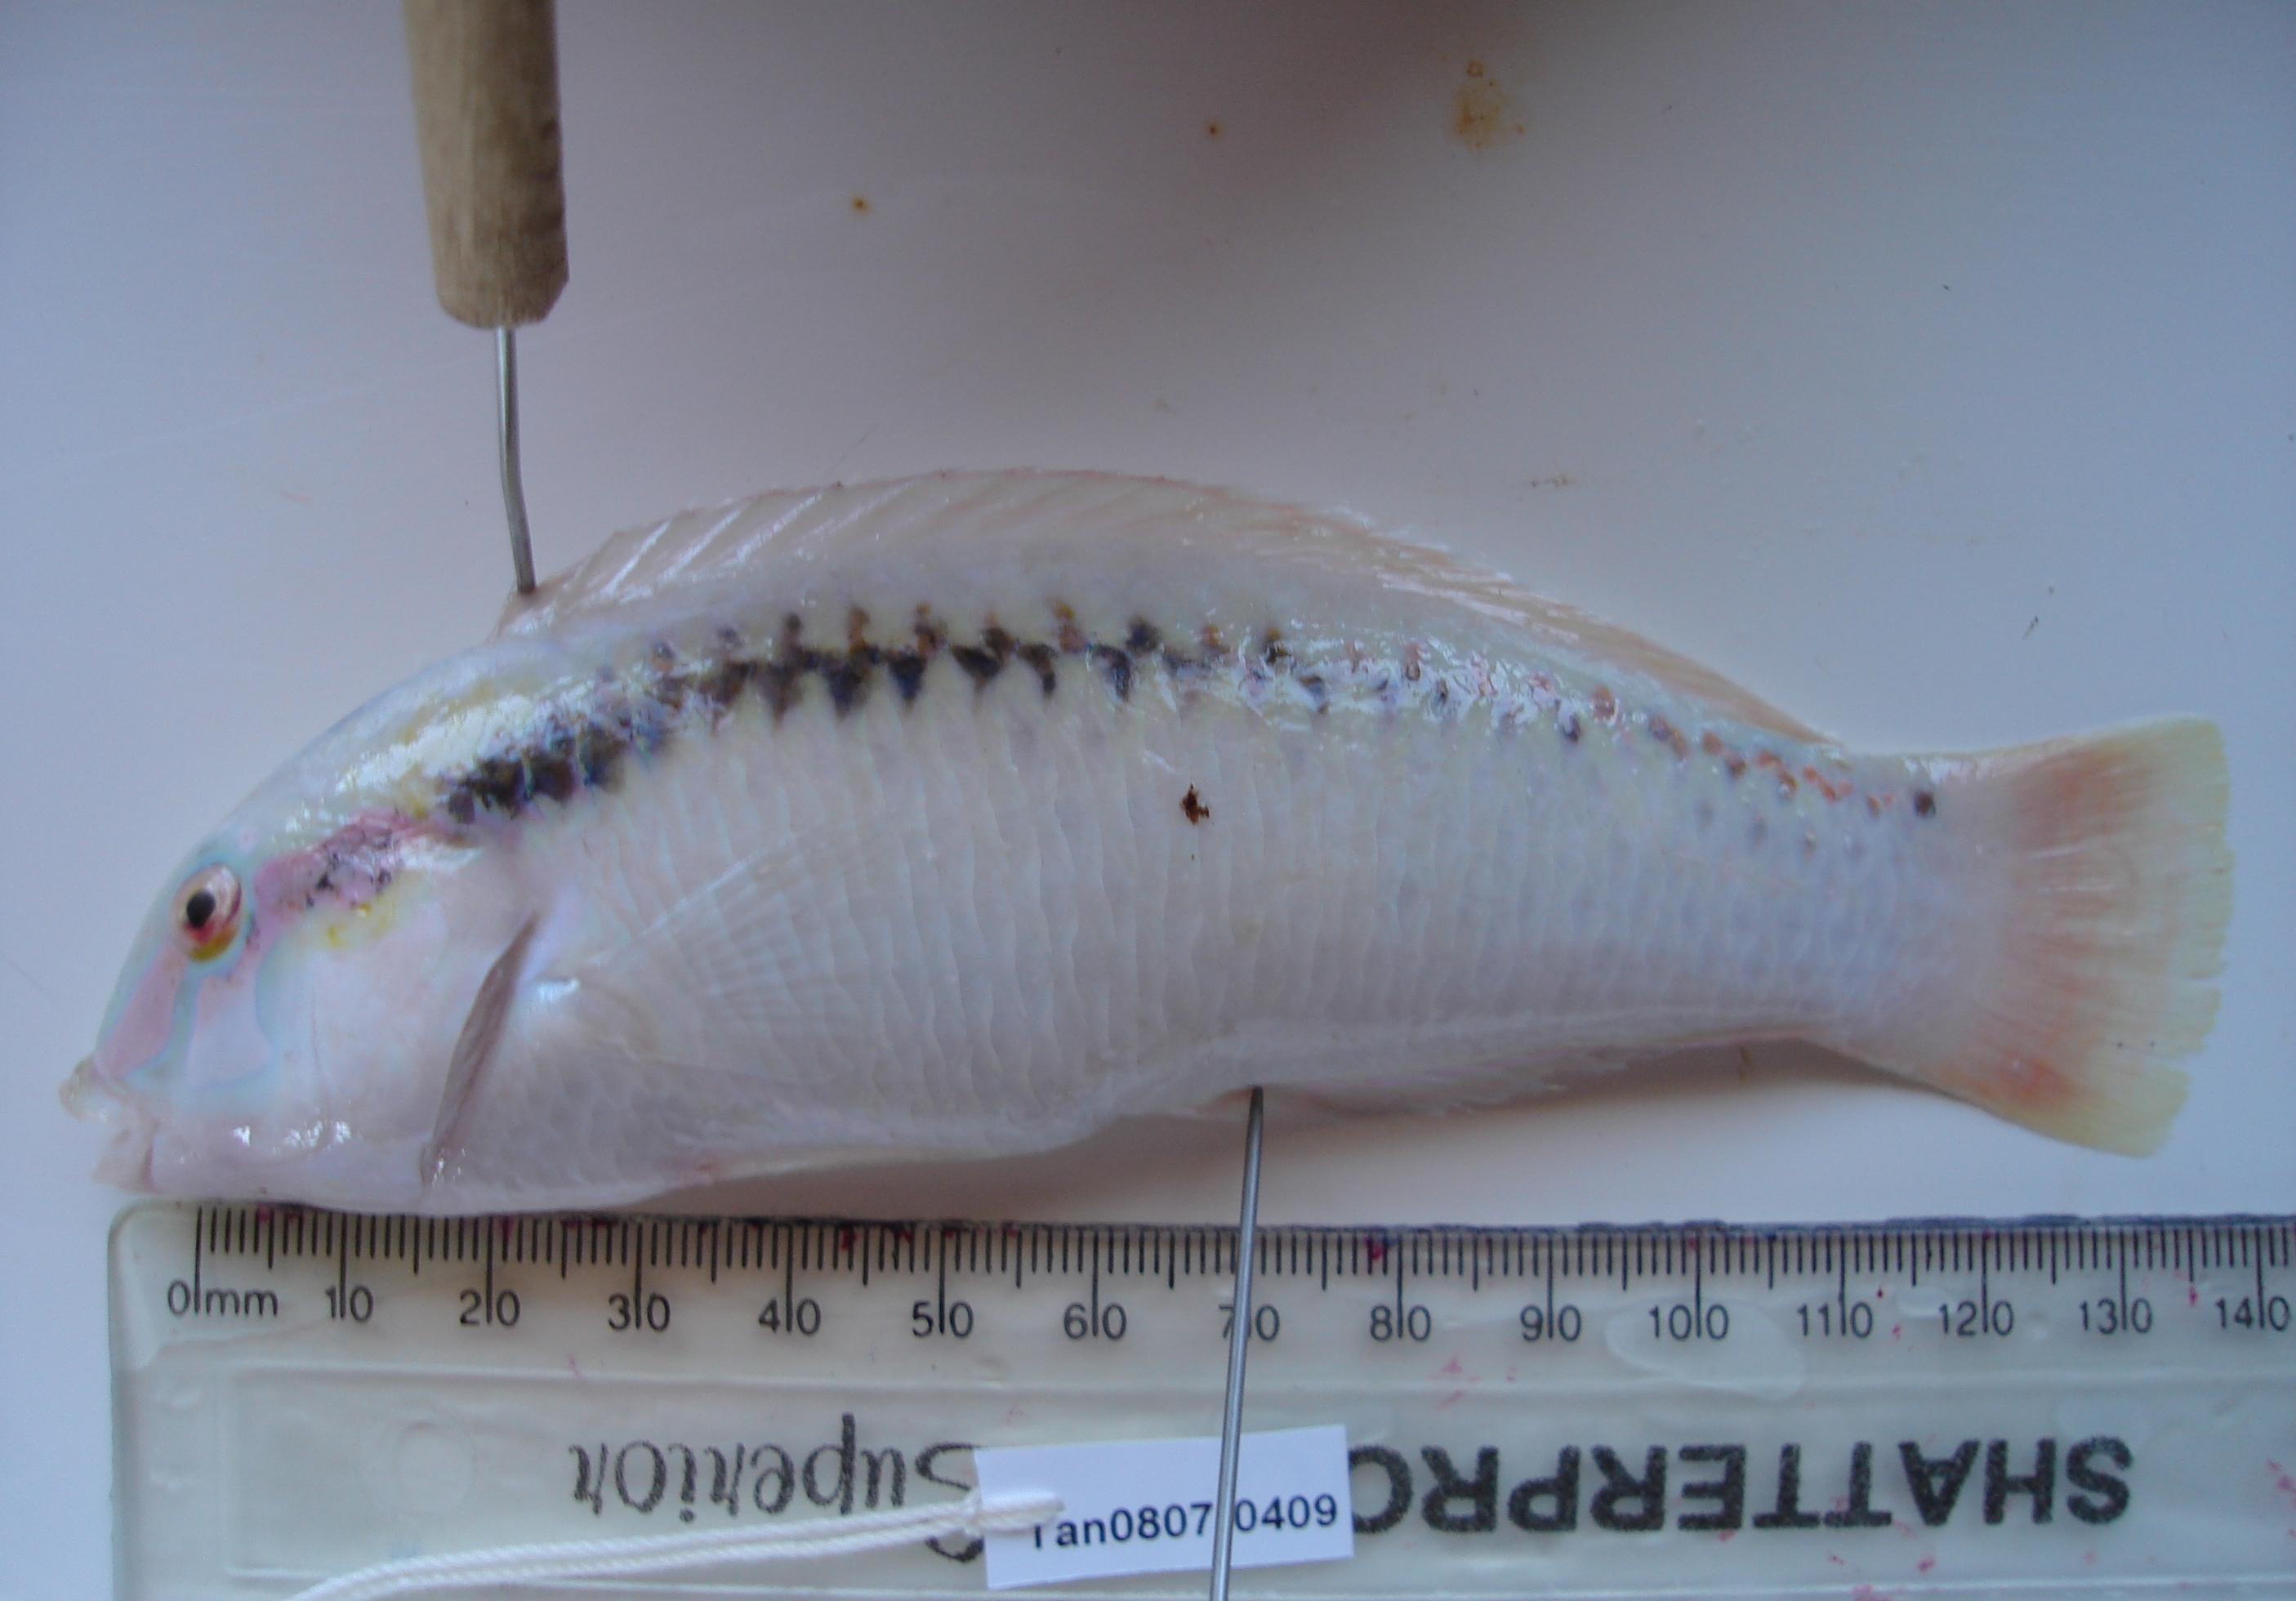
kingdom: Animalia
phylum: Chordata
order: Perciformes
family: Labridae
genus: Halichoeres
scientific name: Halichoeres scapularis
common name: Brownbanded wrasse
